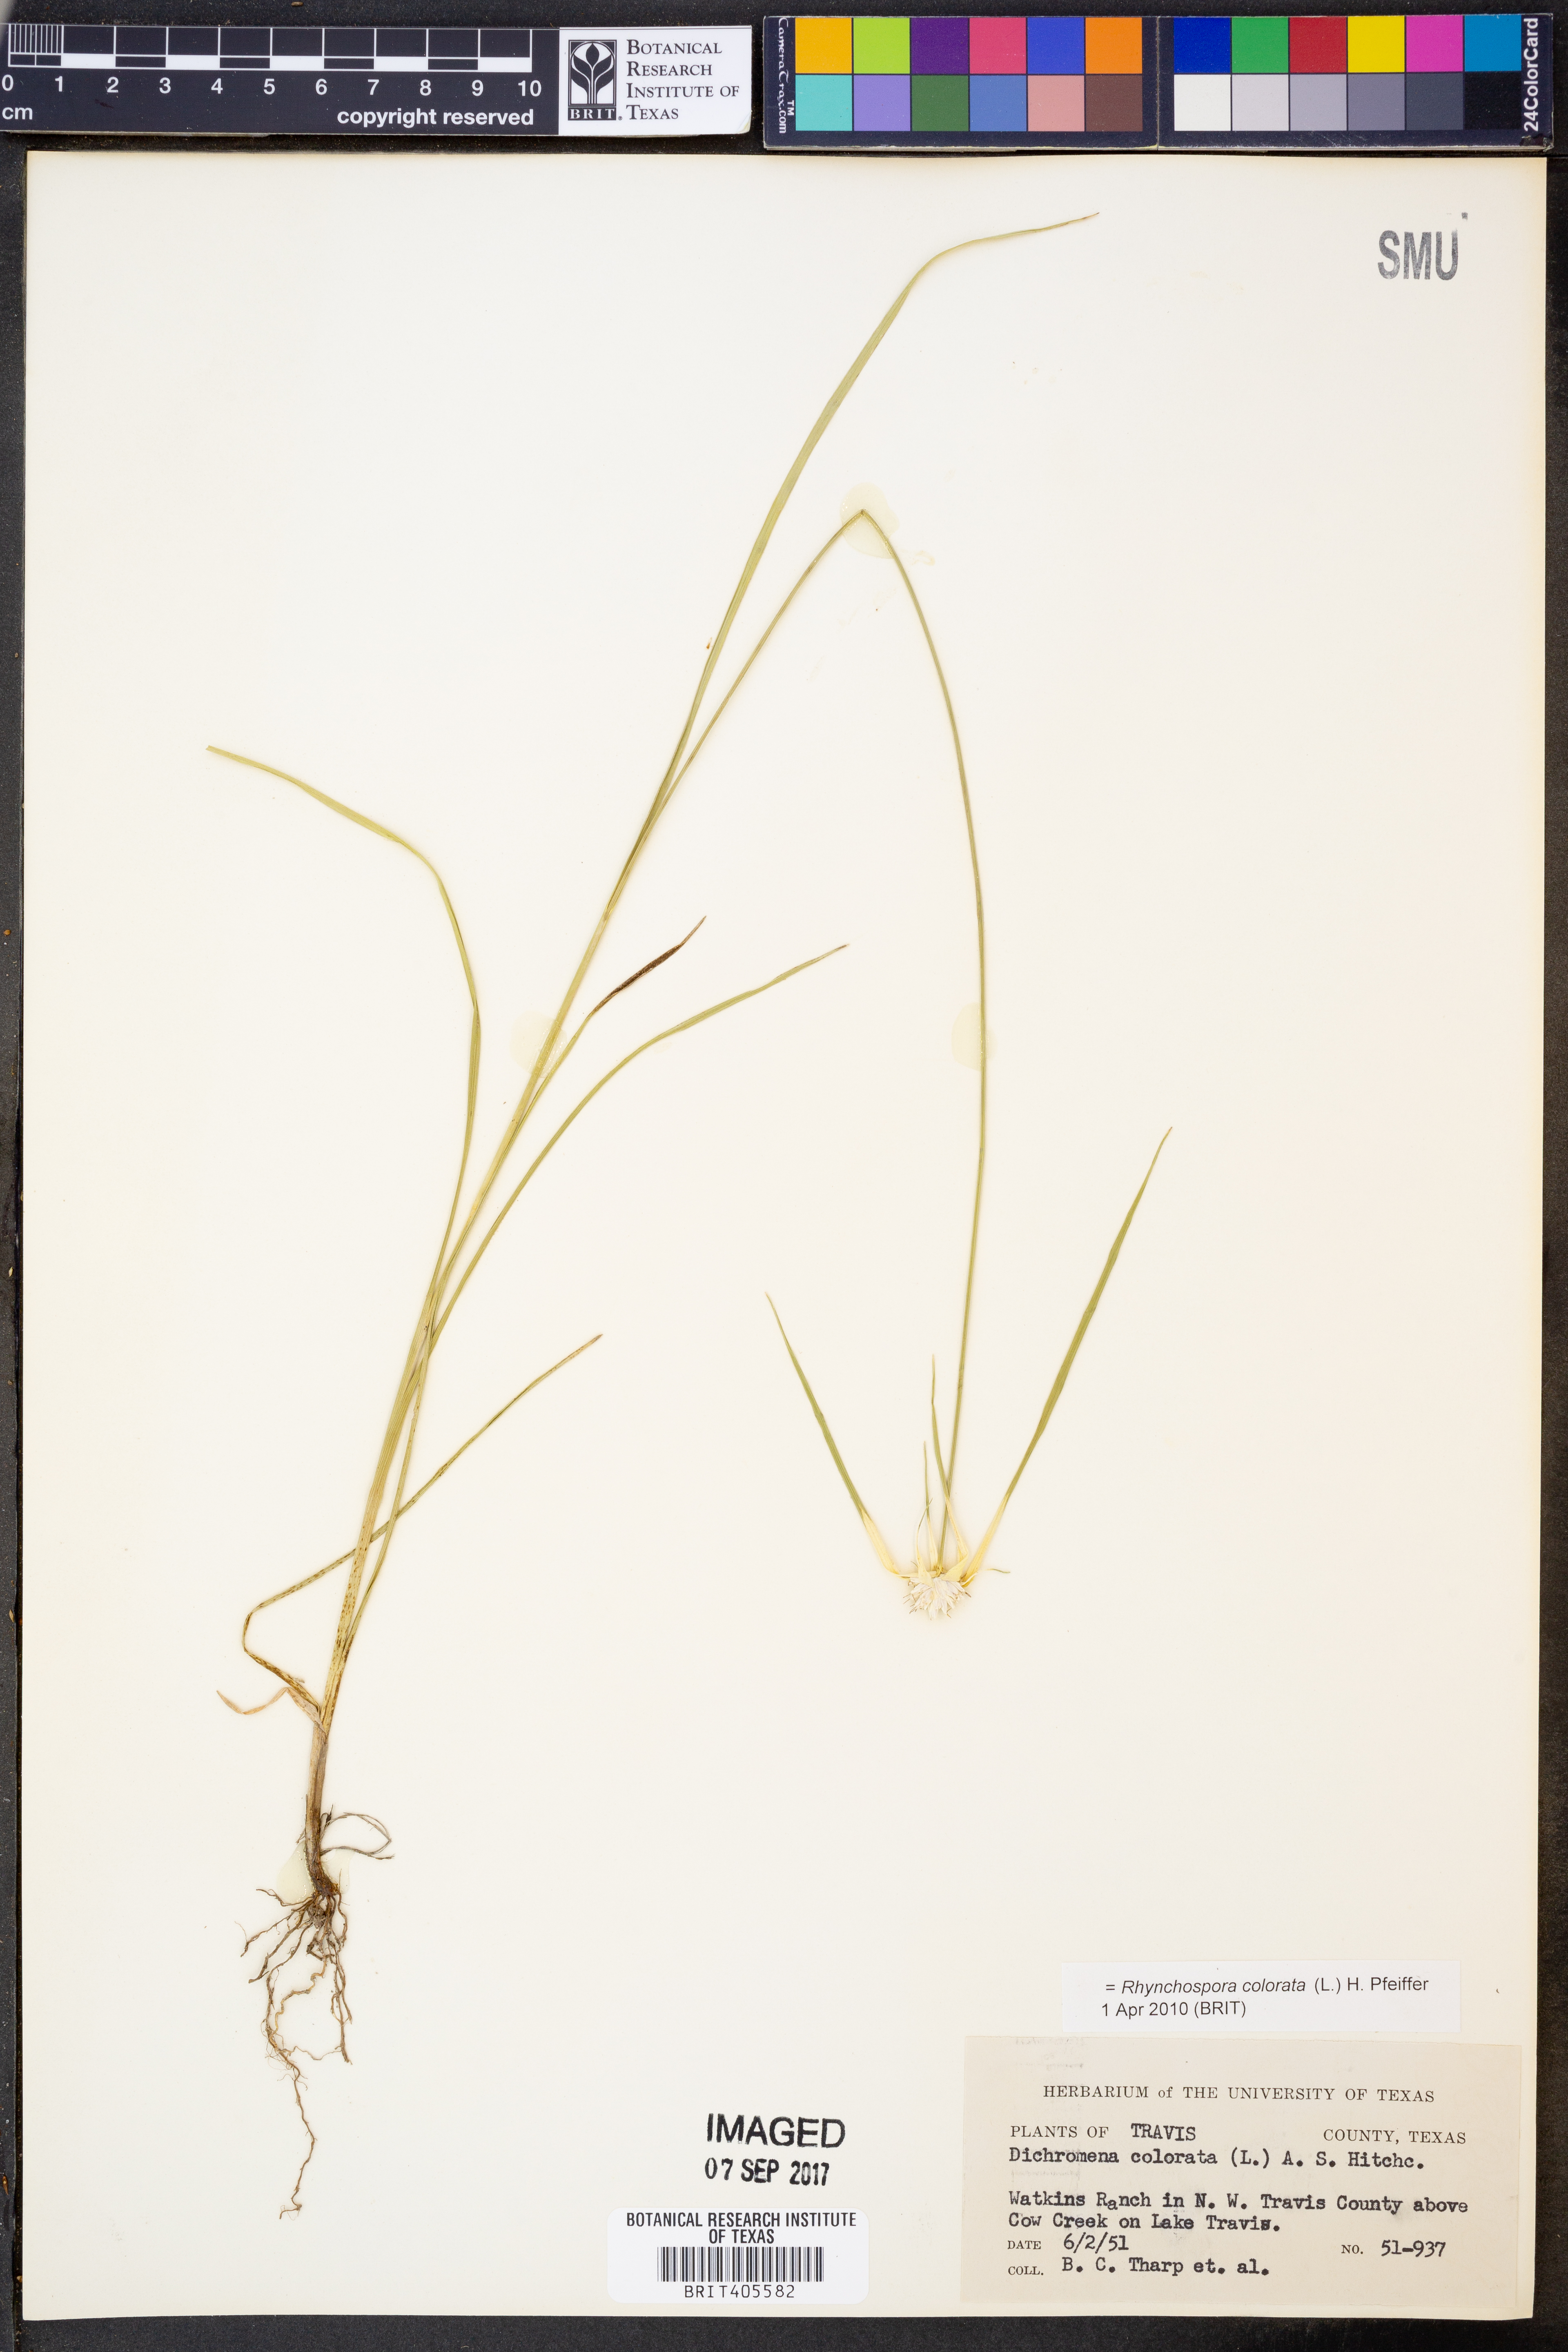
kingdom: Plantae
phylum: Tracheophyta
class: Liliopsida
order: Poales
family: Cyperaceae
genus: Rhynchospora
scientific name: Rhynchospora colorata
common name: Star sedge
